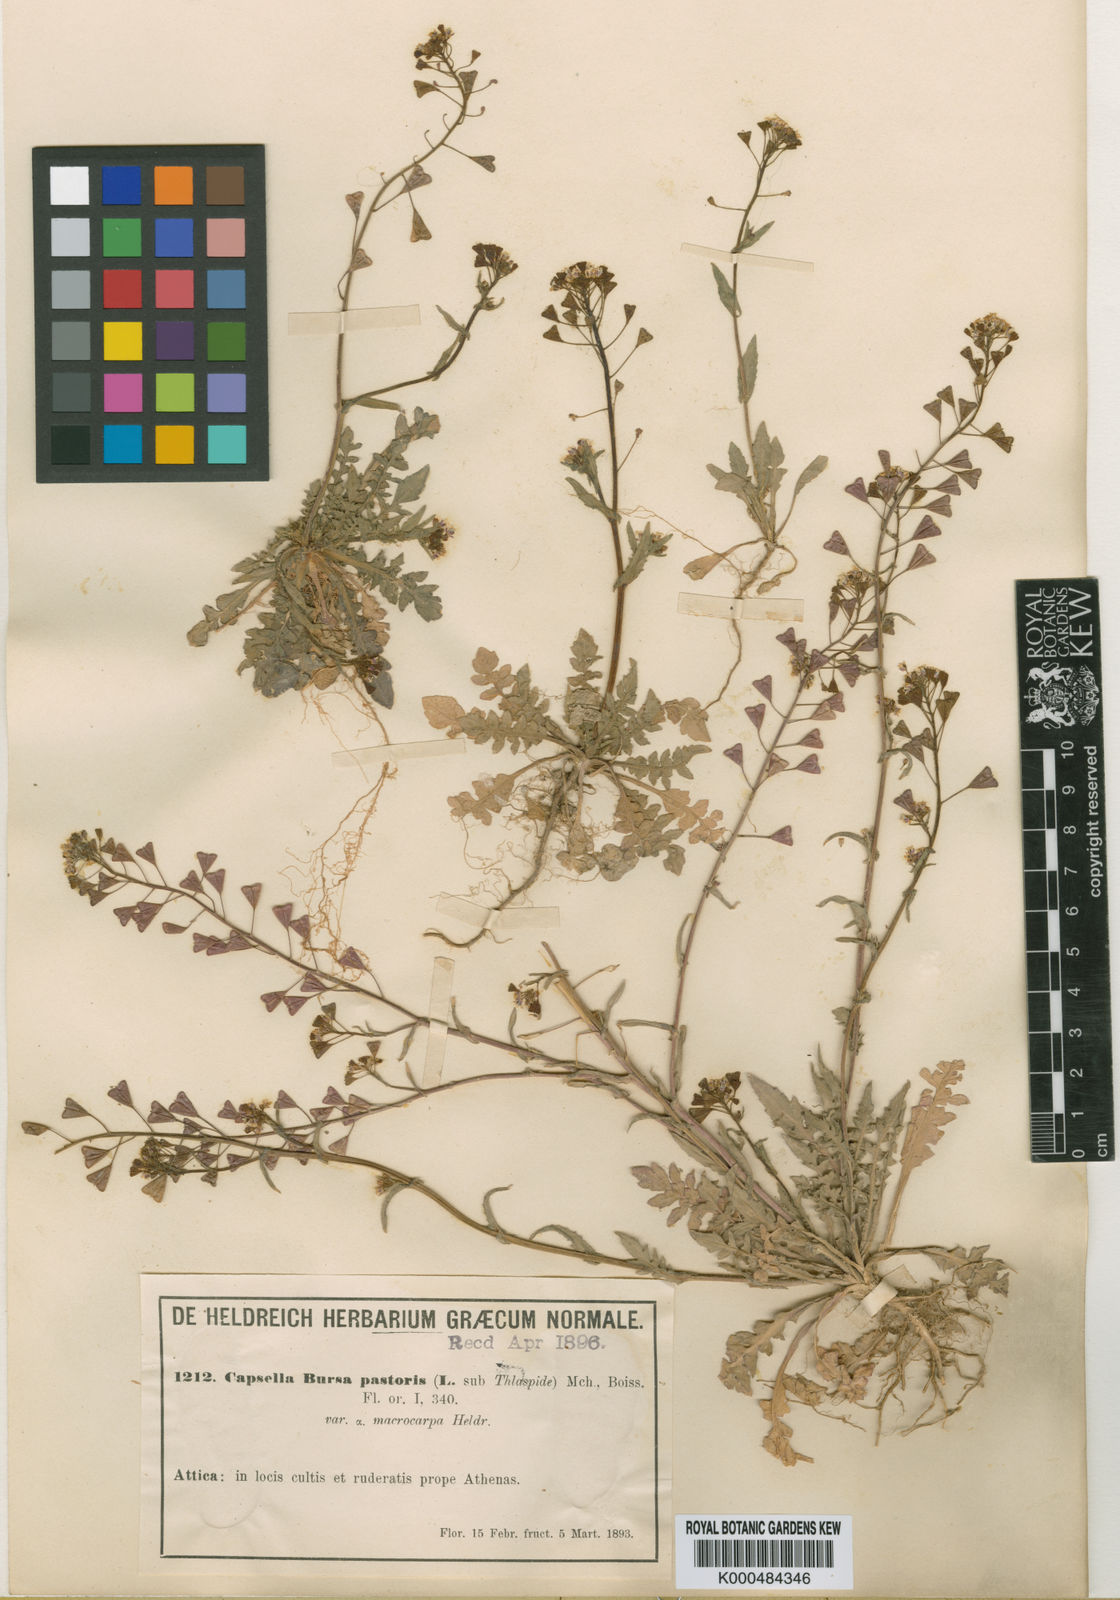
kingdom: Plantae
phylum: Tracheophyta
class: Magnoliopsida
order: Brassicales
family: Brassicaceae
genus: Capsella
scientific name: Capsella bursa-pastoris
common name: Shepherd's purse
